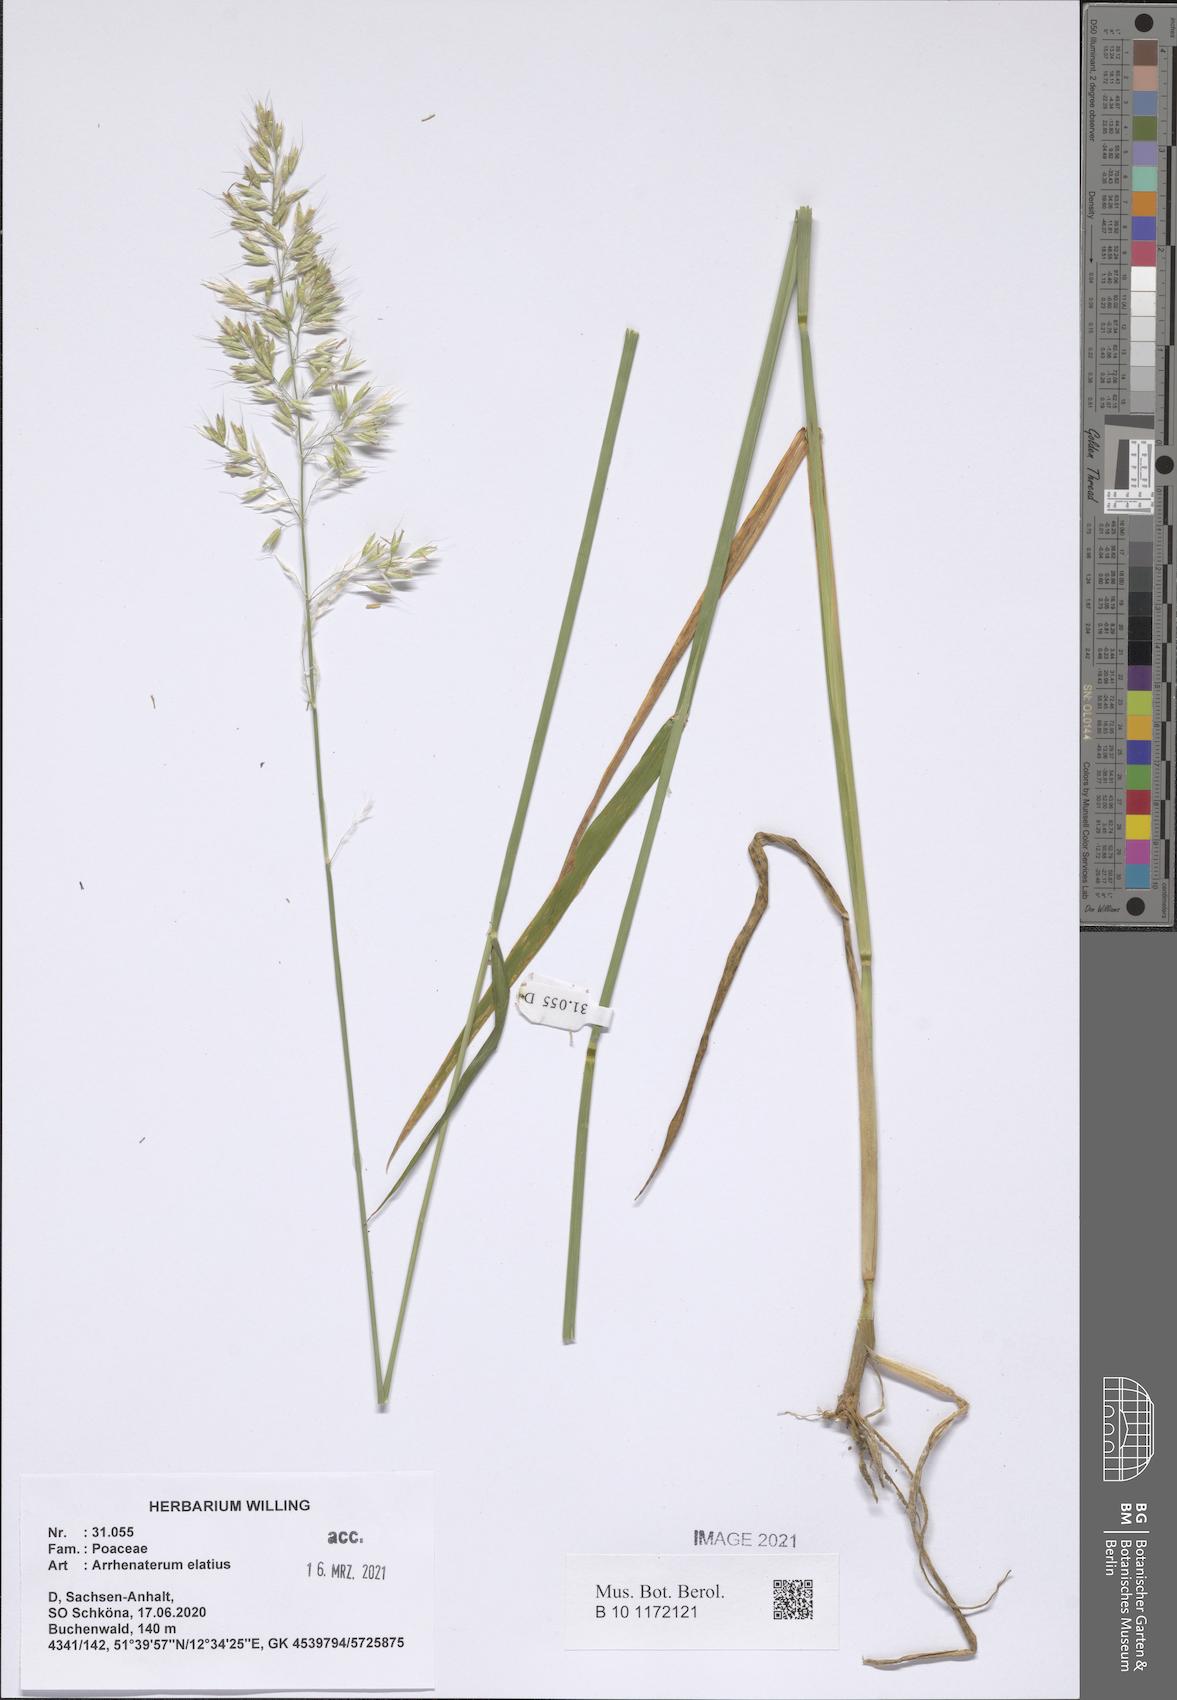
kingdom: Plantae
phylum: Tracheophyta
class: Liliopsida
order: Poales
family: Poaceae
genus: Arrhenatherum
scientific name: Arrhenatherum elatius
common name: Tall oatgrass
